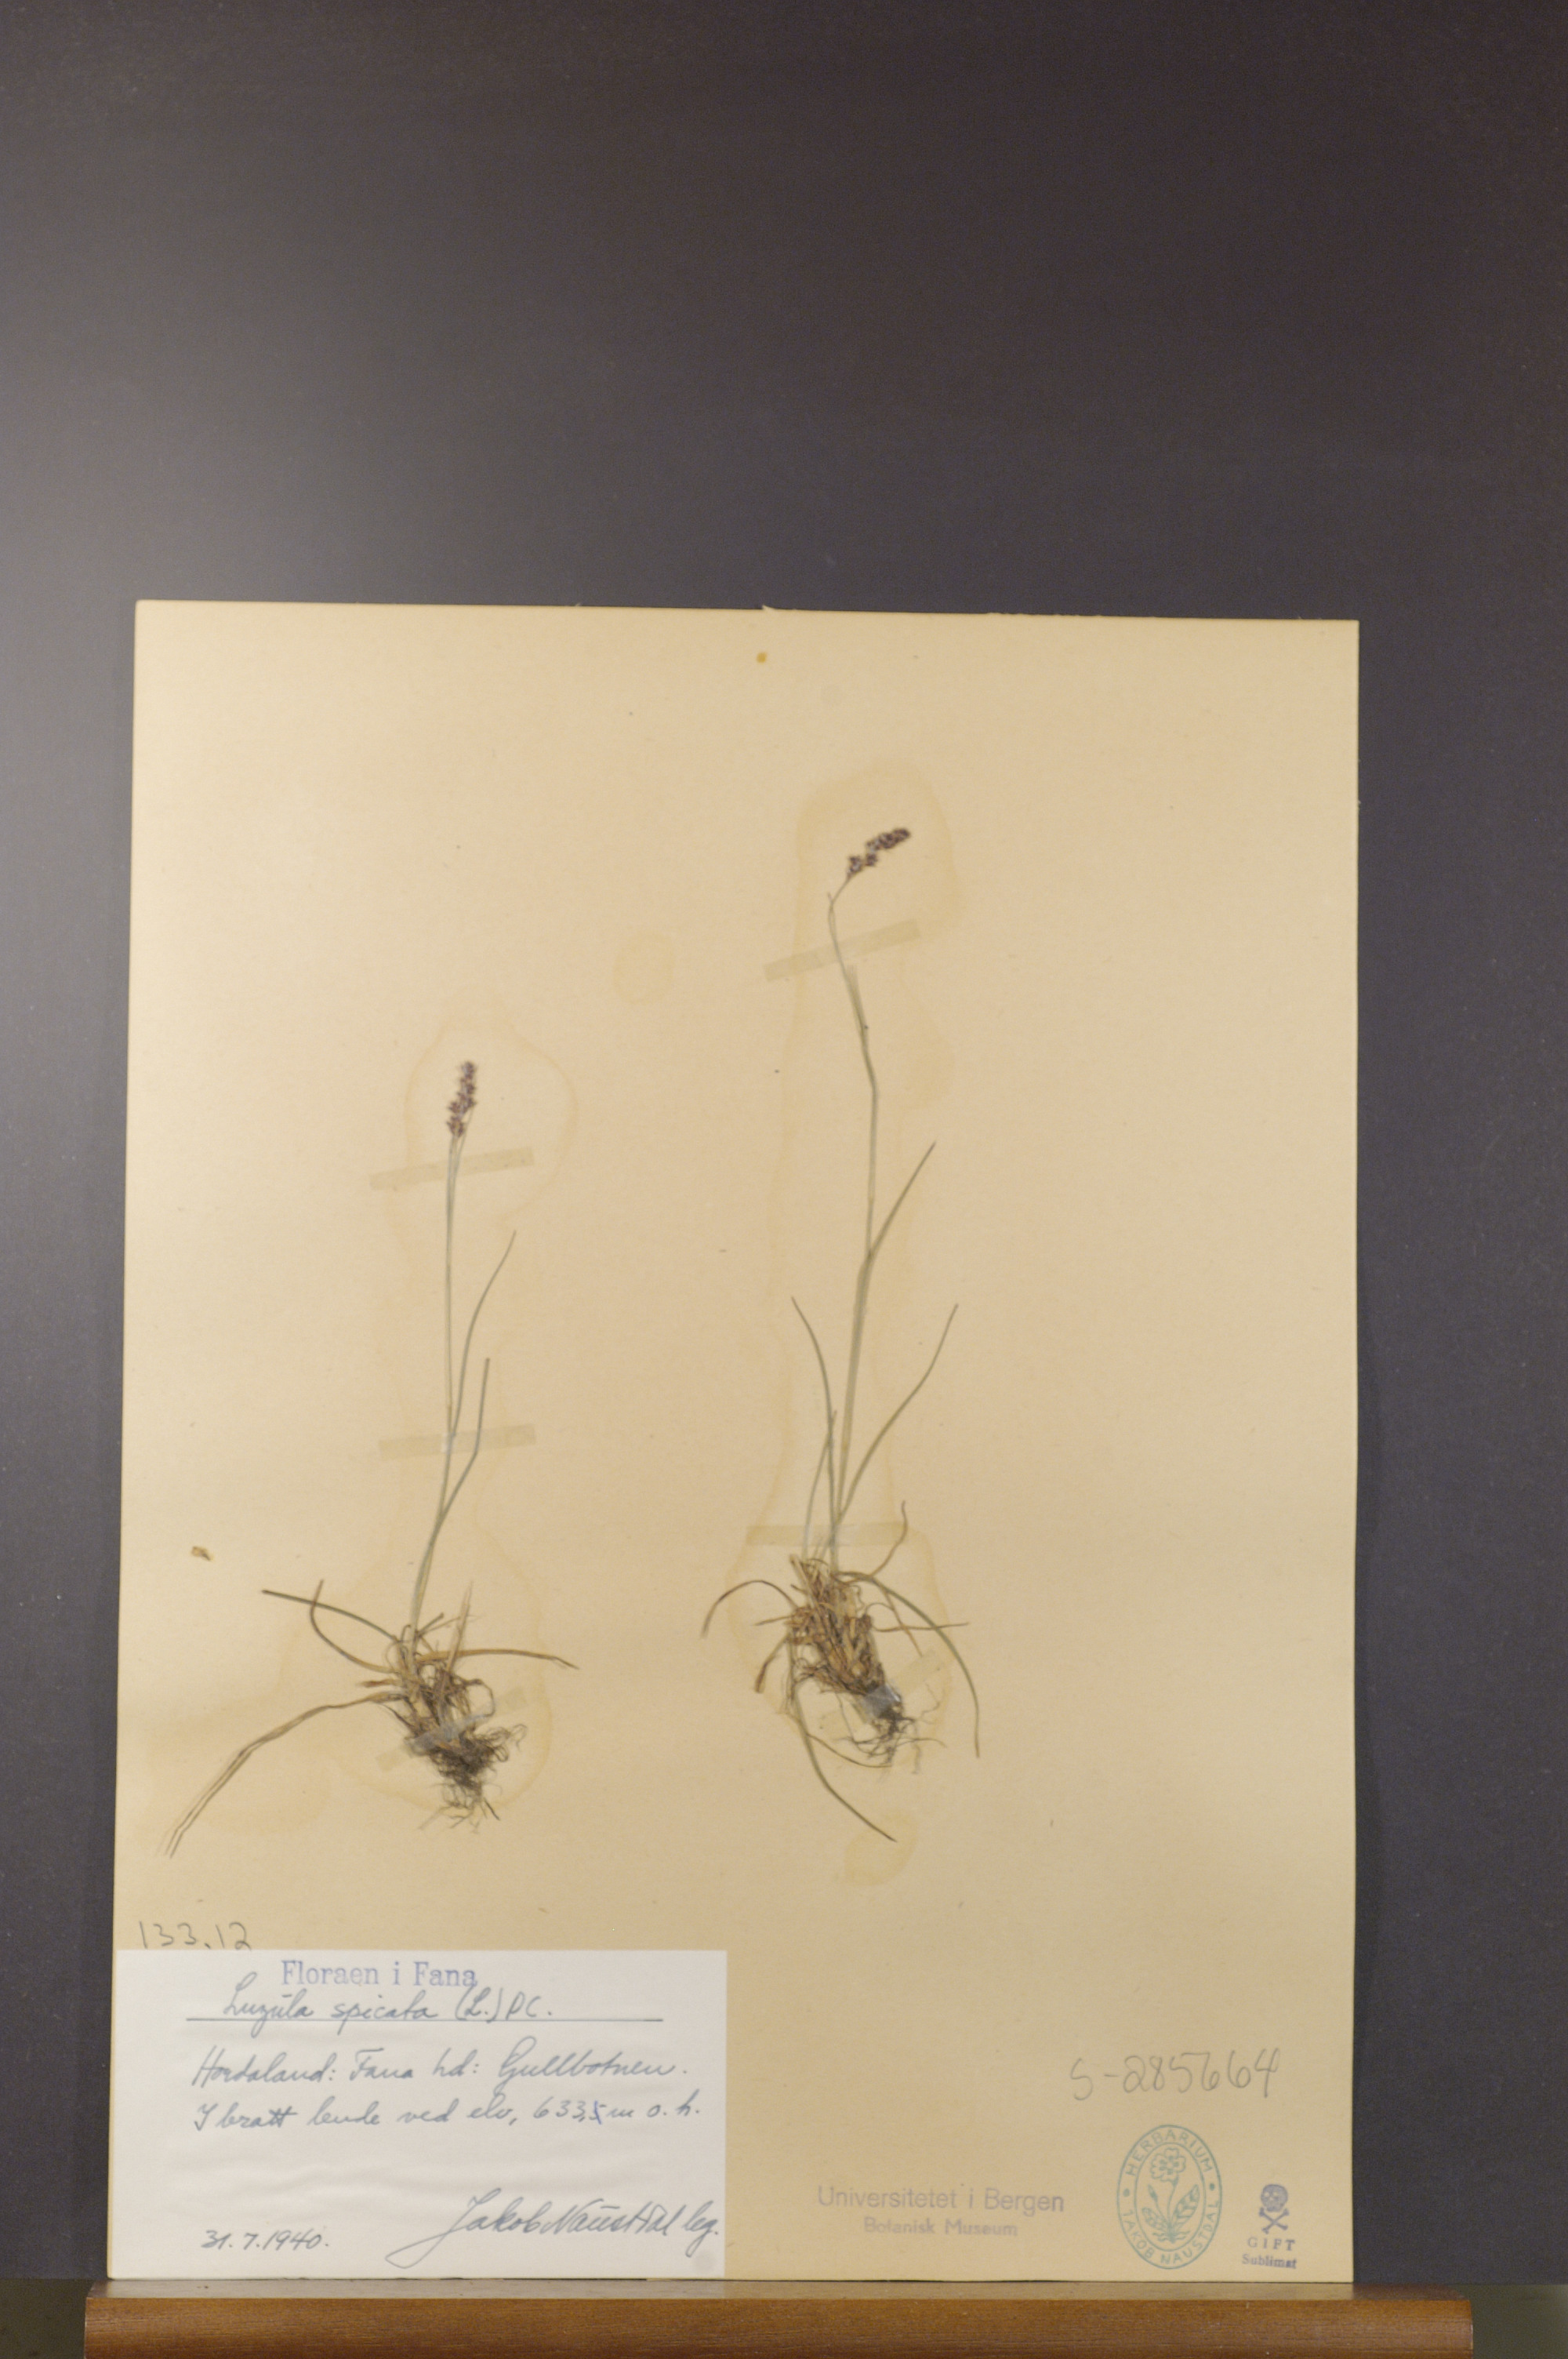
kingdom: Plantae
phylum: Tracheophyta
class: Liliopsida
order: Poales
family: Juncaceae
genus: Luzula
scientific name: Luzula spicata
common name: Spiked wood-rush
